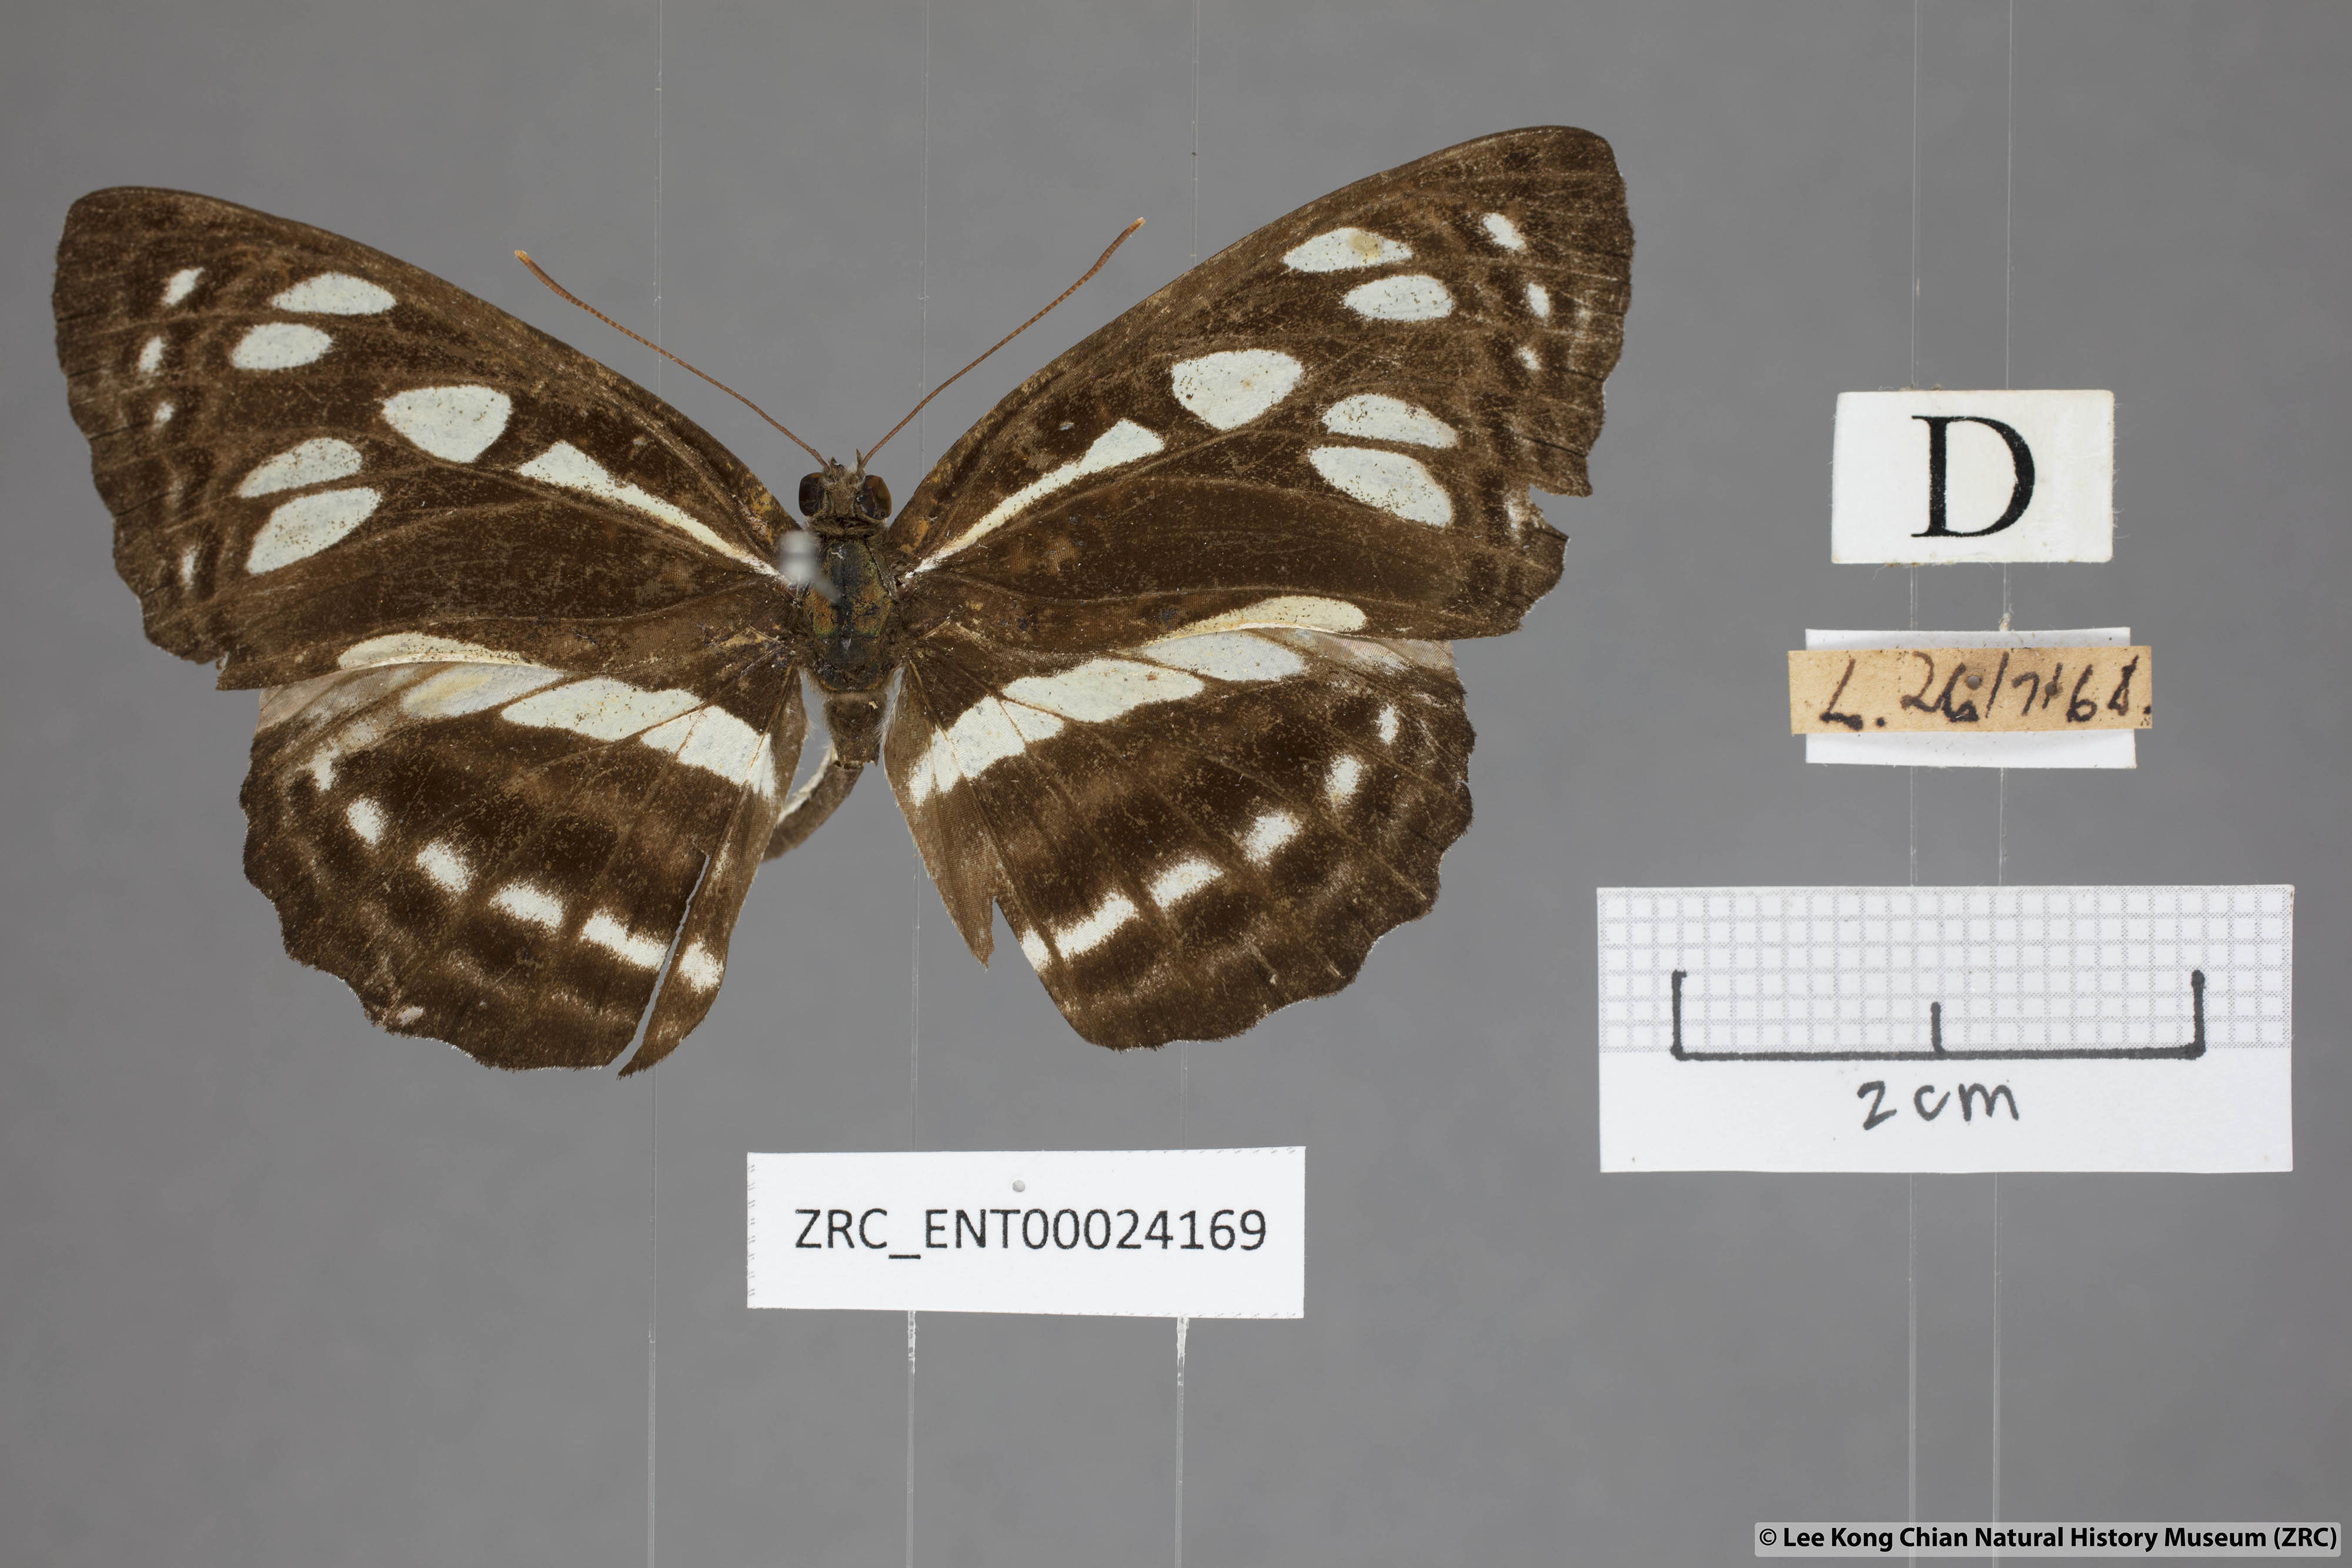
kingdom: Animalia
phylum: Arthropoda
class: Insecta
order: Lepidoptera
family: Nymphalidae
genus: Phaedyma
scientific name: Phaedyma columella
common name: Short banded sailer
